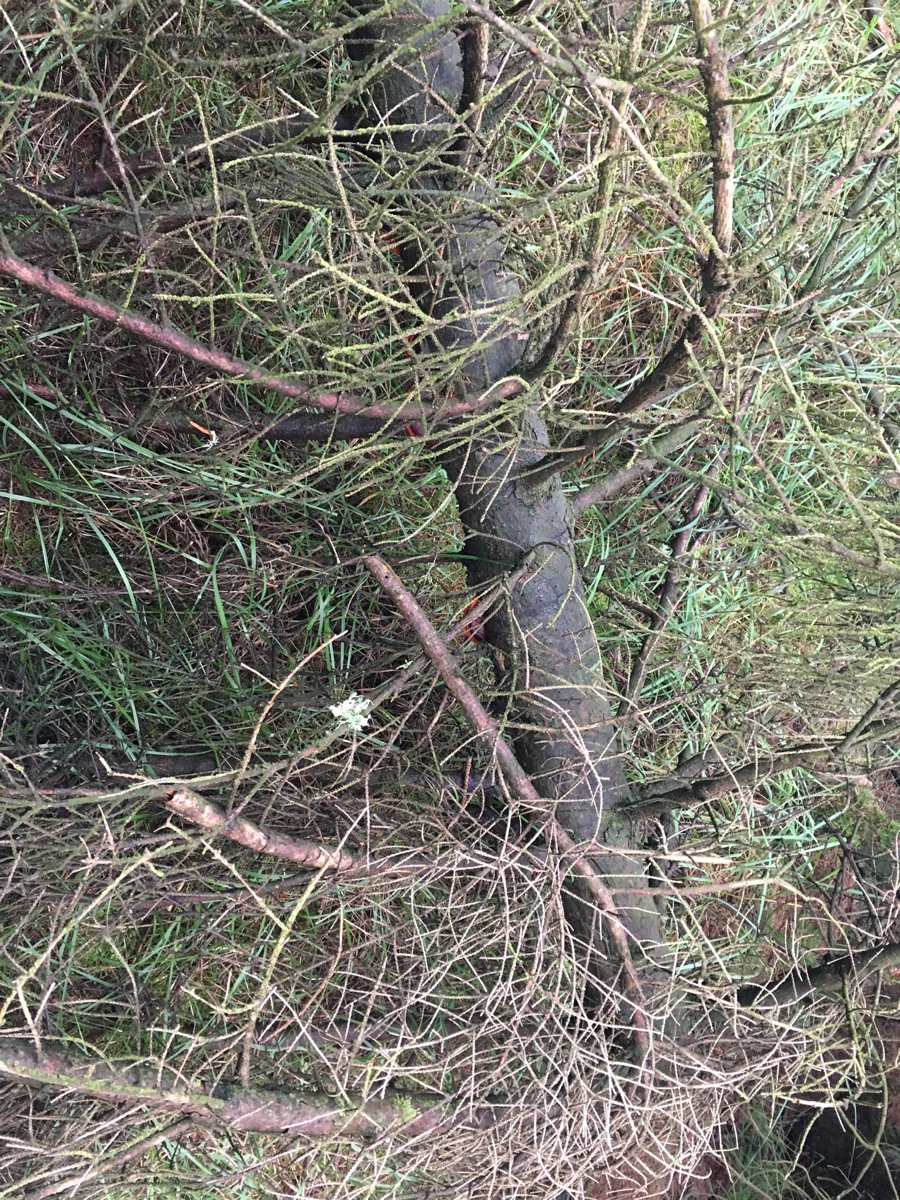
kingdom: Fungi
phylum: Basidiomycota
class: Agaricomycetes
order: Polyporales
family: Fomitopsidaceae
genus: Fomitopsis
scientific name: Fomitopsis pinicola
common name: randbæltet hovporesvamp
